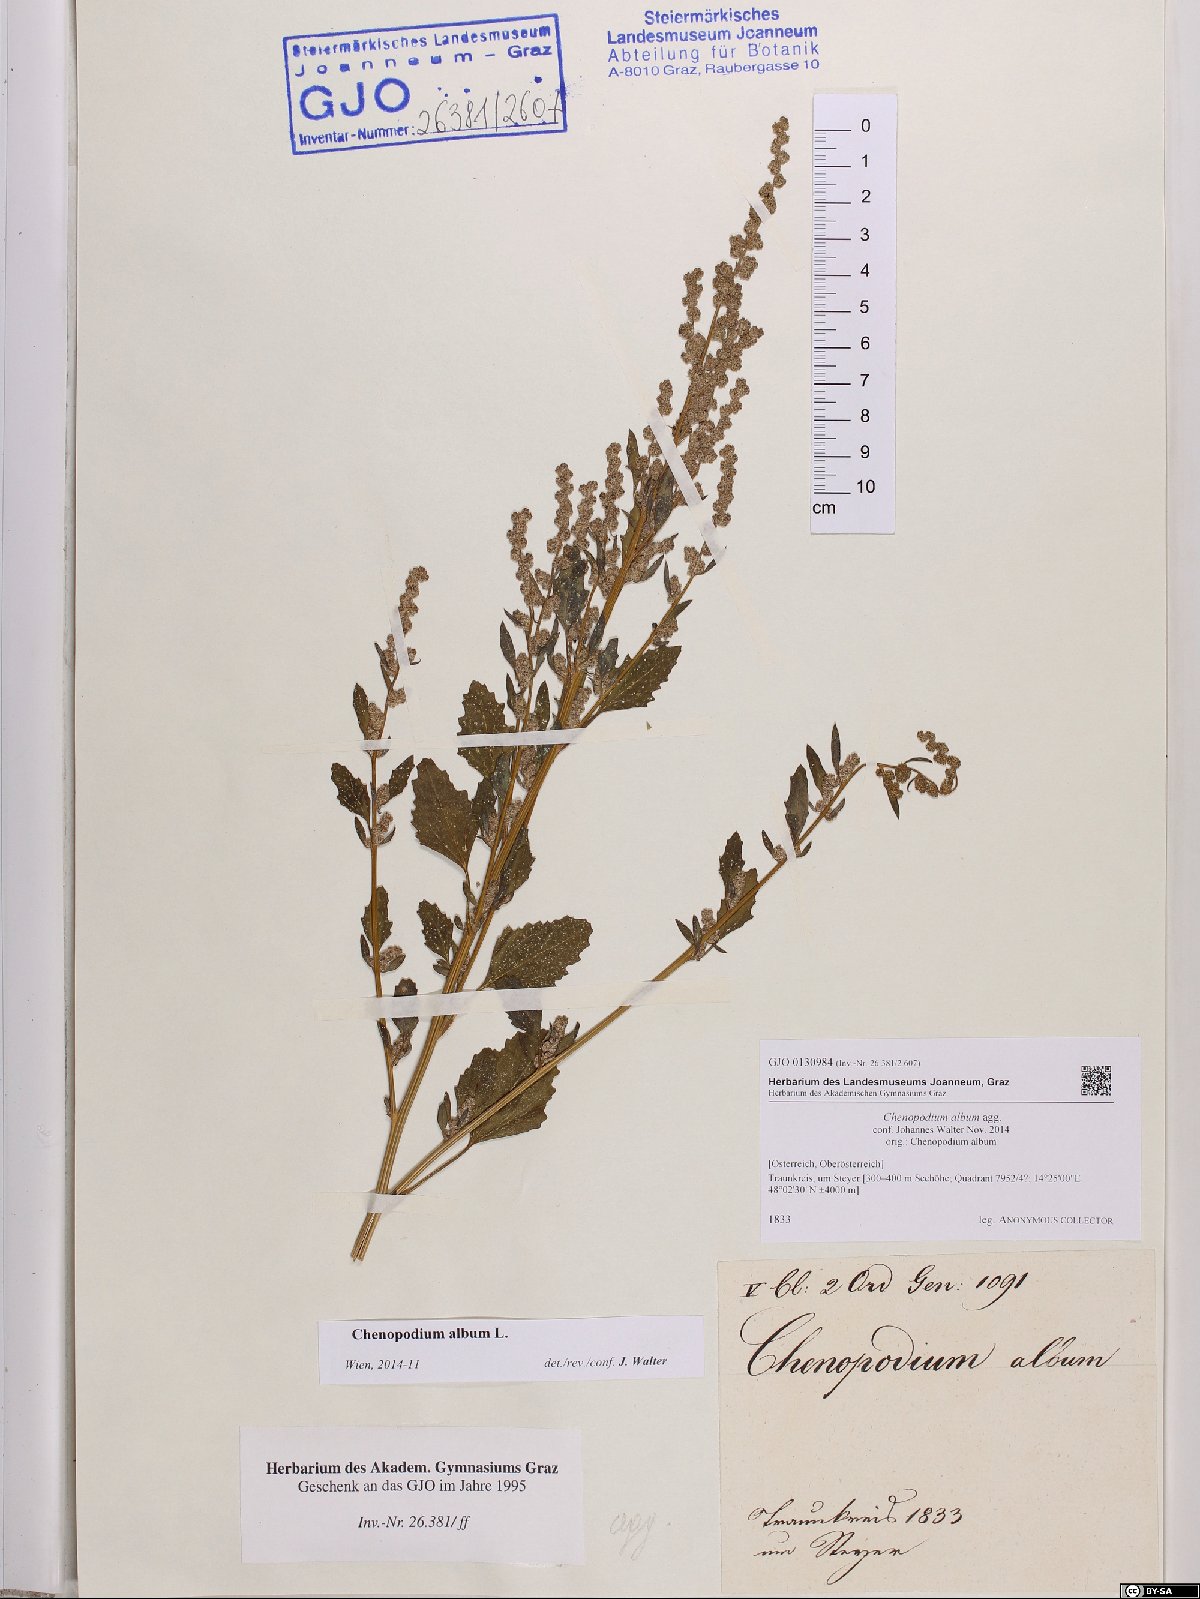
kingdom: Plantae
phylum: Tracheophyta
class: Magnoliopsida
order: Caryophyllales
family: Amaranthaceae
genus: Chenopodium
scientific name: Chenopodium album
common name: Fat-hen
